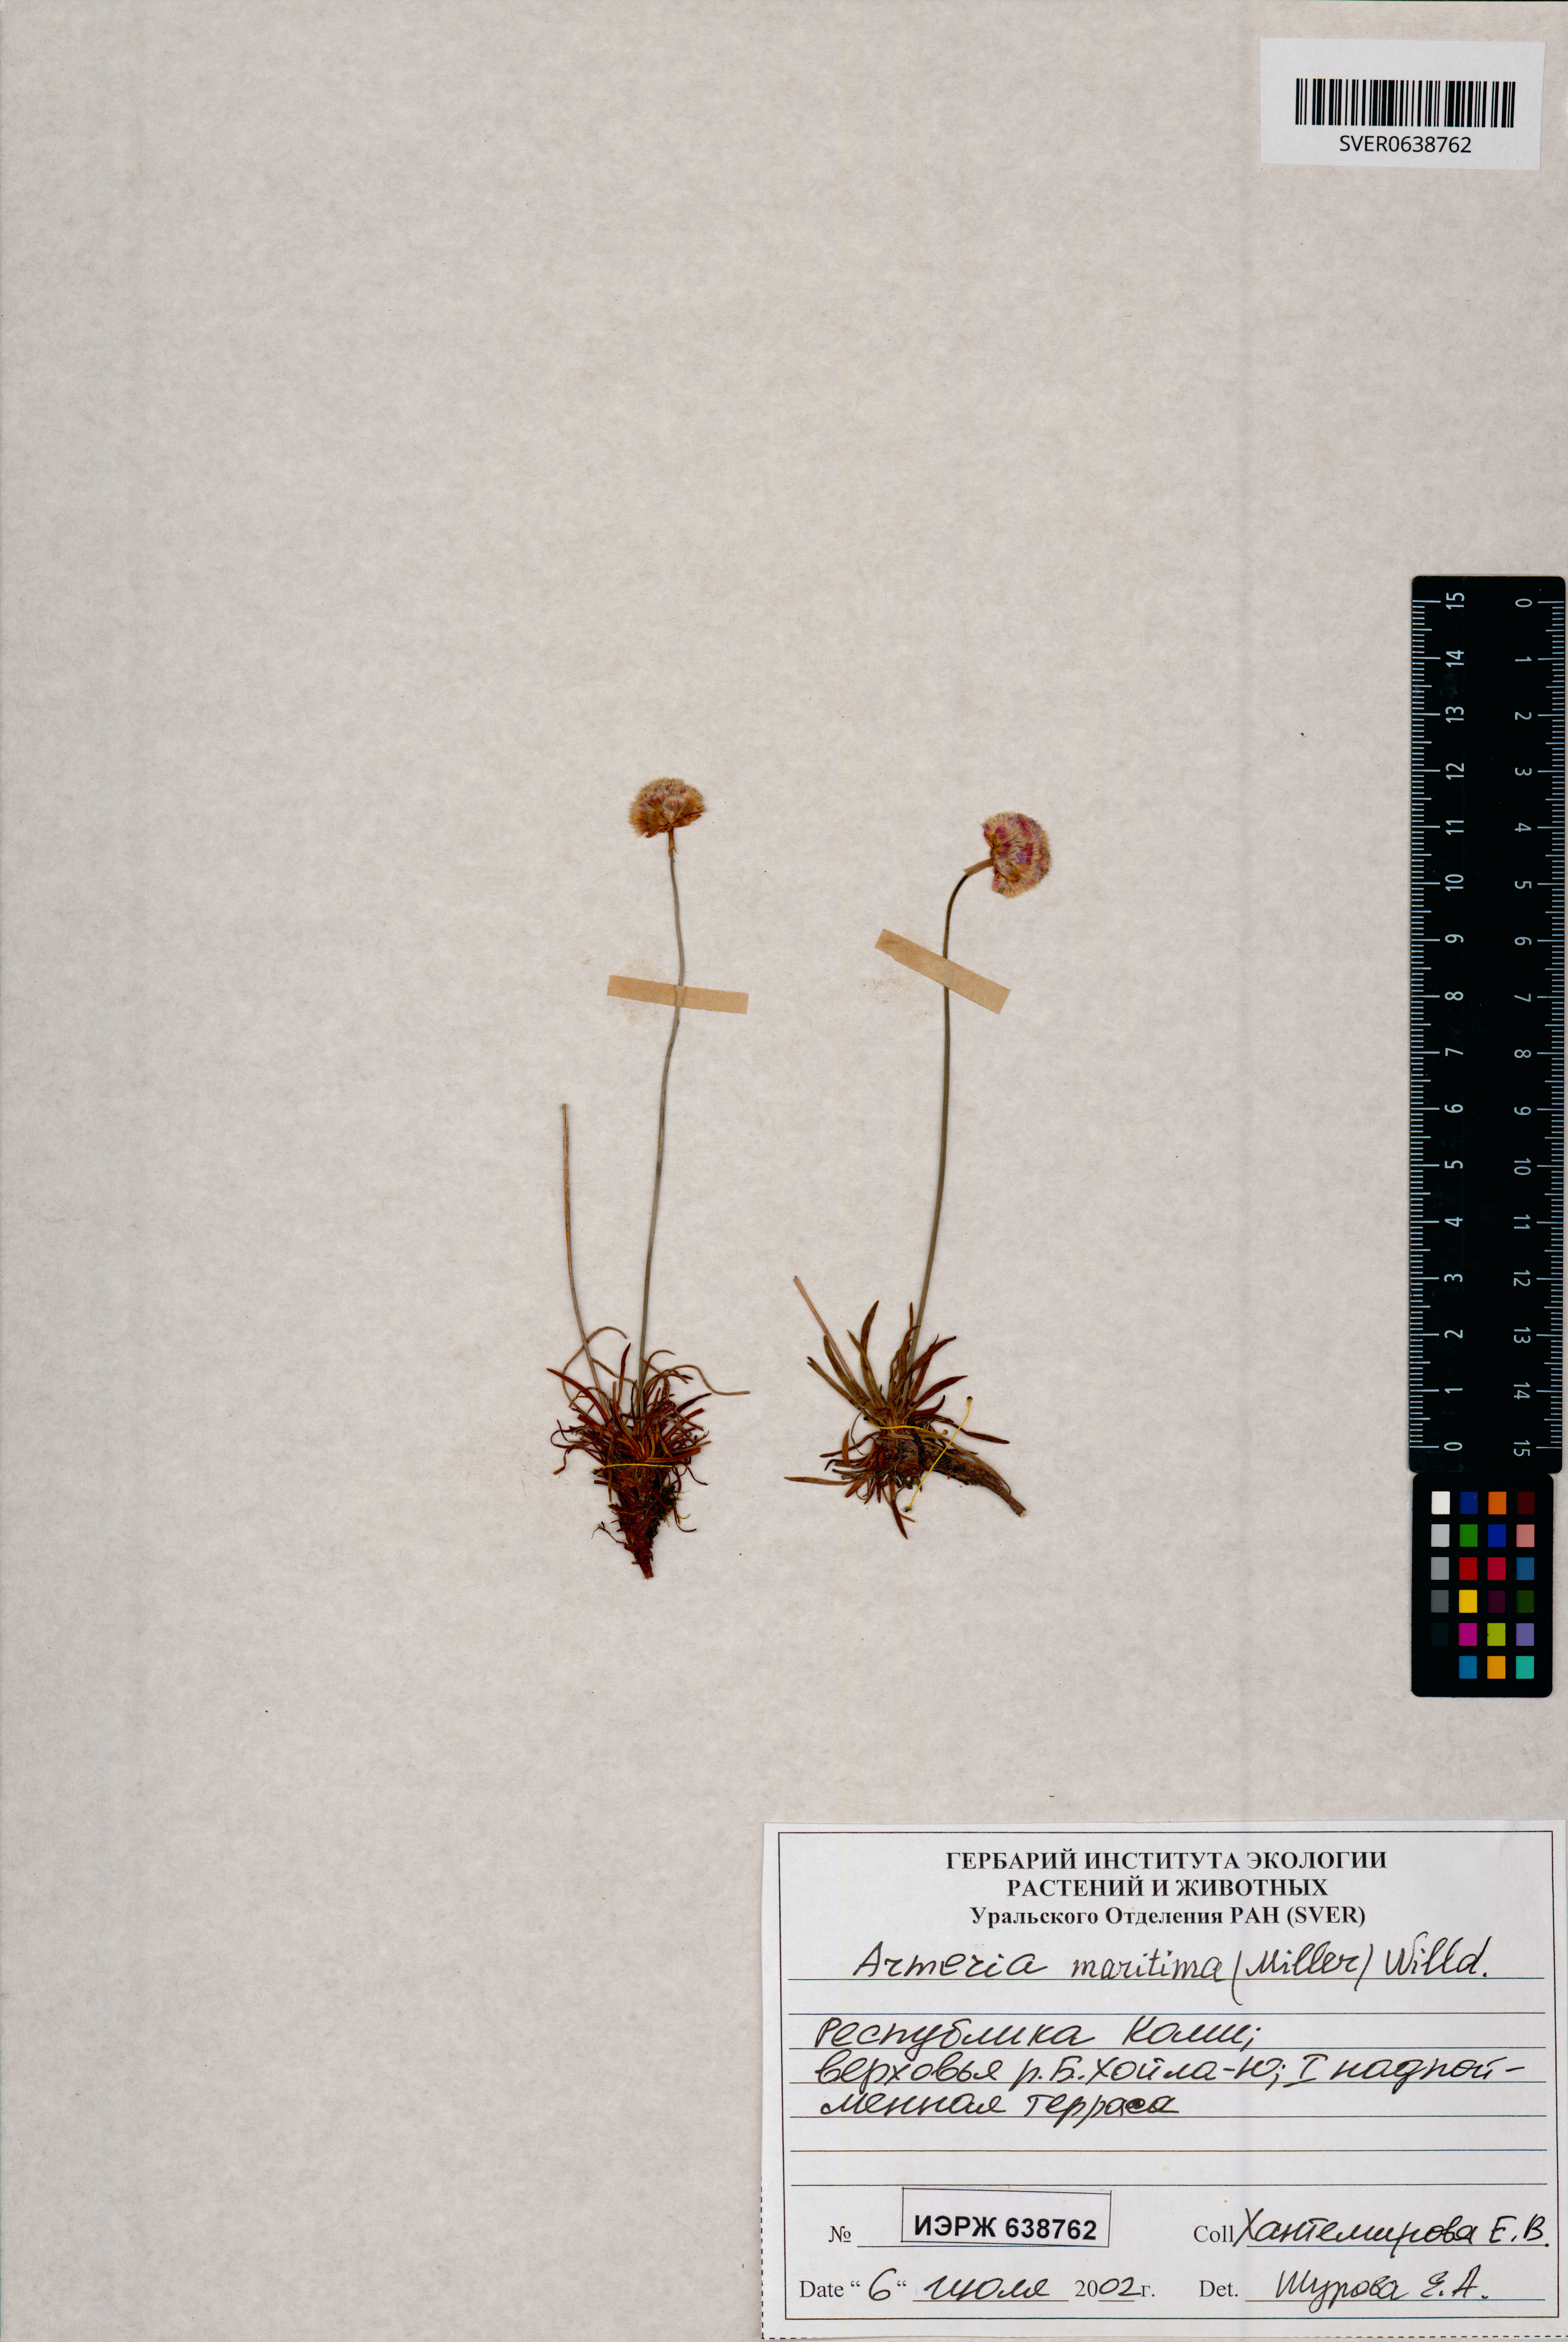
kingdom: Plantae
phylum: Tracheophyta
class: Magnoliopsida
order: Caryophyllales
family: Plumbaginaceae
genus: Armeria
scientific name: Armeria maritima
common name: Thrift
